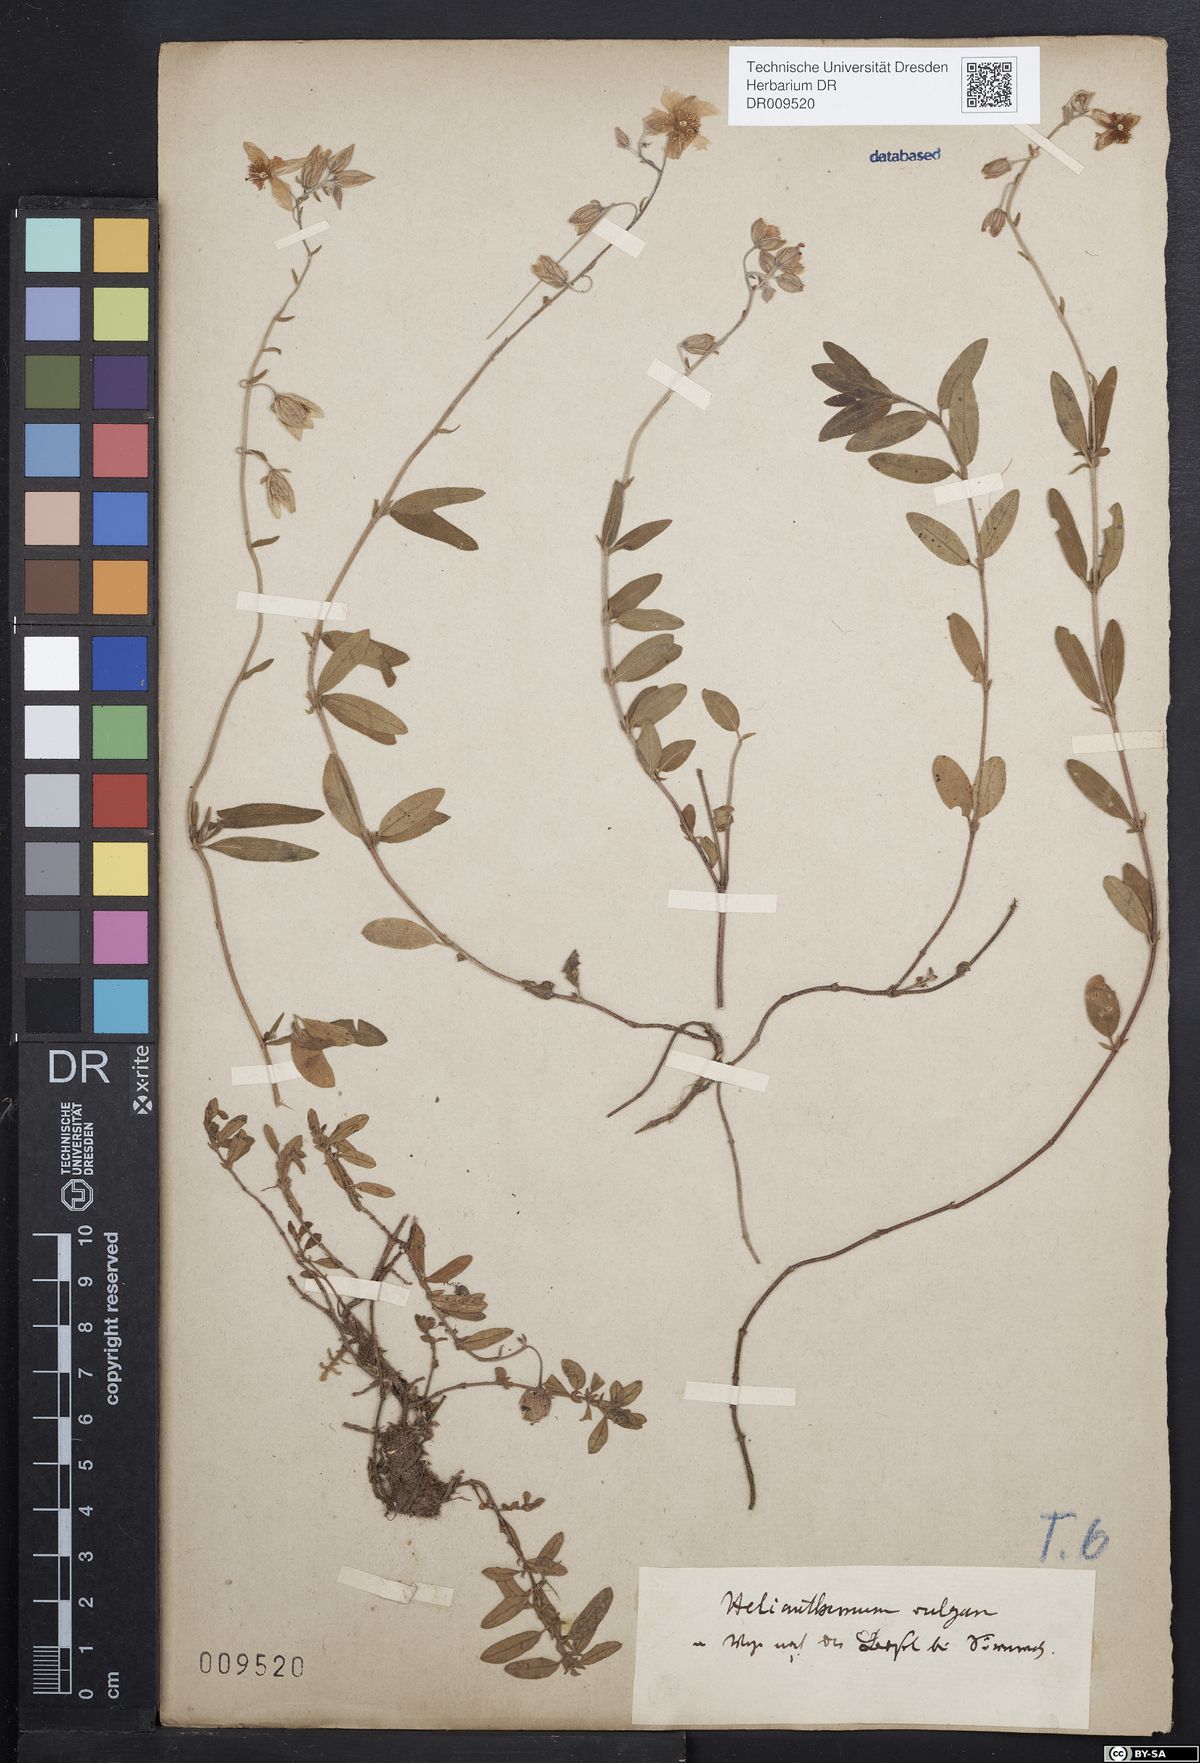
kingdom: Plantae
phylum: Tracheophyta
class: Magnoliopsida
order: Malvales
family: Cistaceae
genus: Helianthemum
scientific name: Helianthemum nummularium
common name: Common rock-rose
